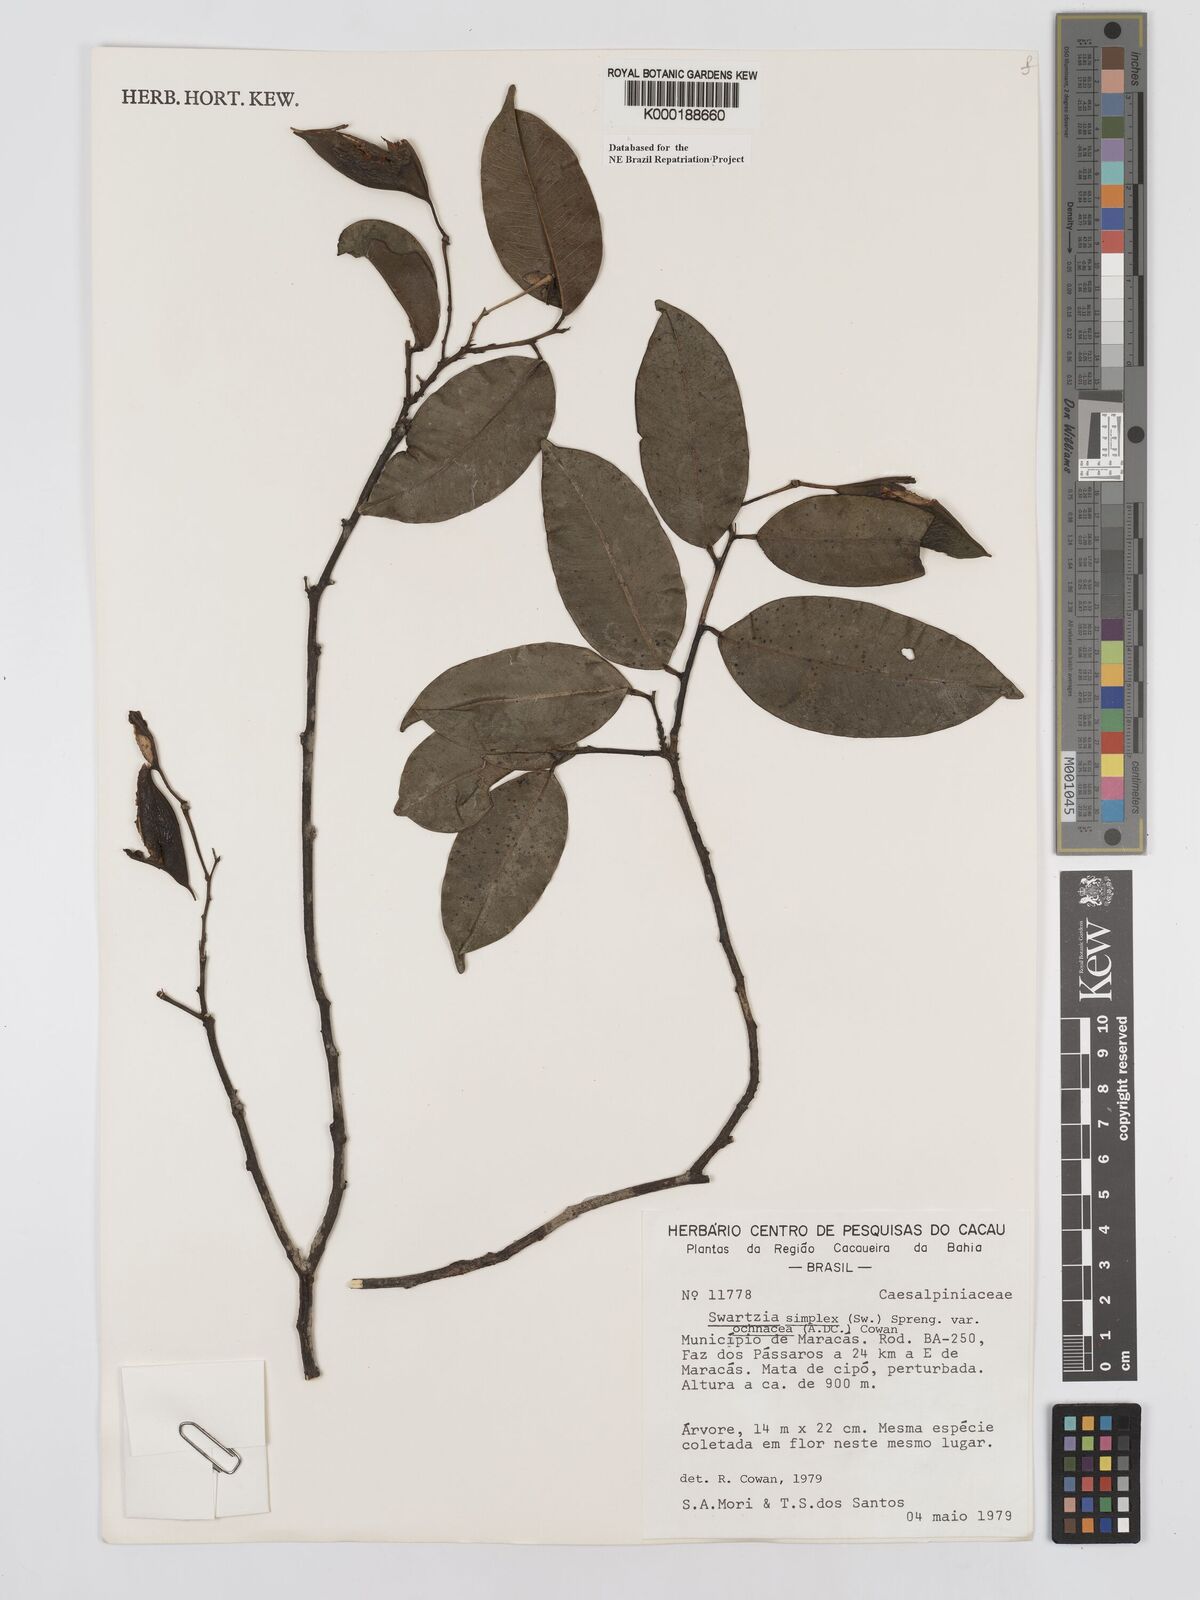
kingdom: Plantae
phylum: Tracheophyta
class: Magnoliopsida
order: Fabales
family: Fabaceae
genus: Swartzia
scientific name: Swartzia simplex
